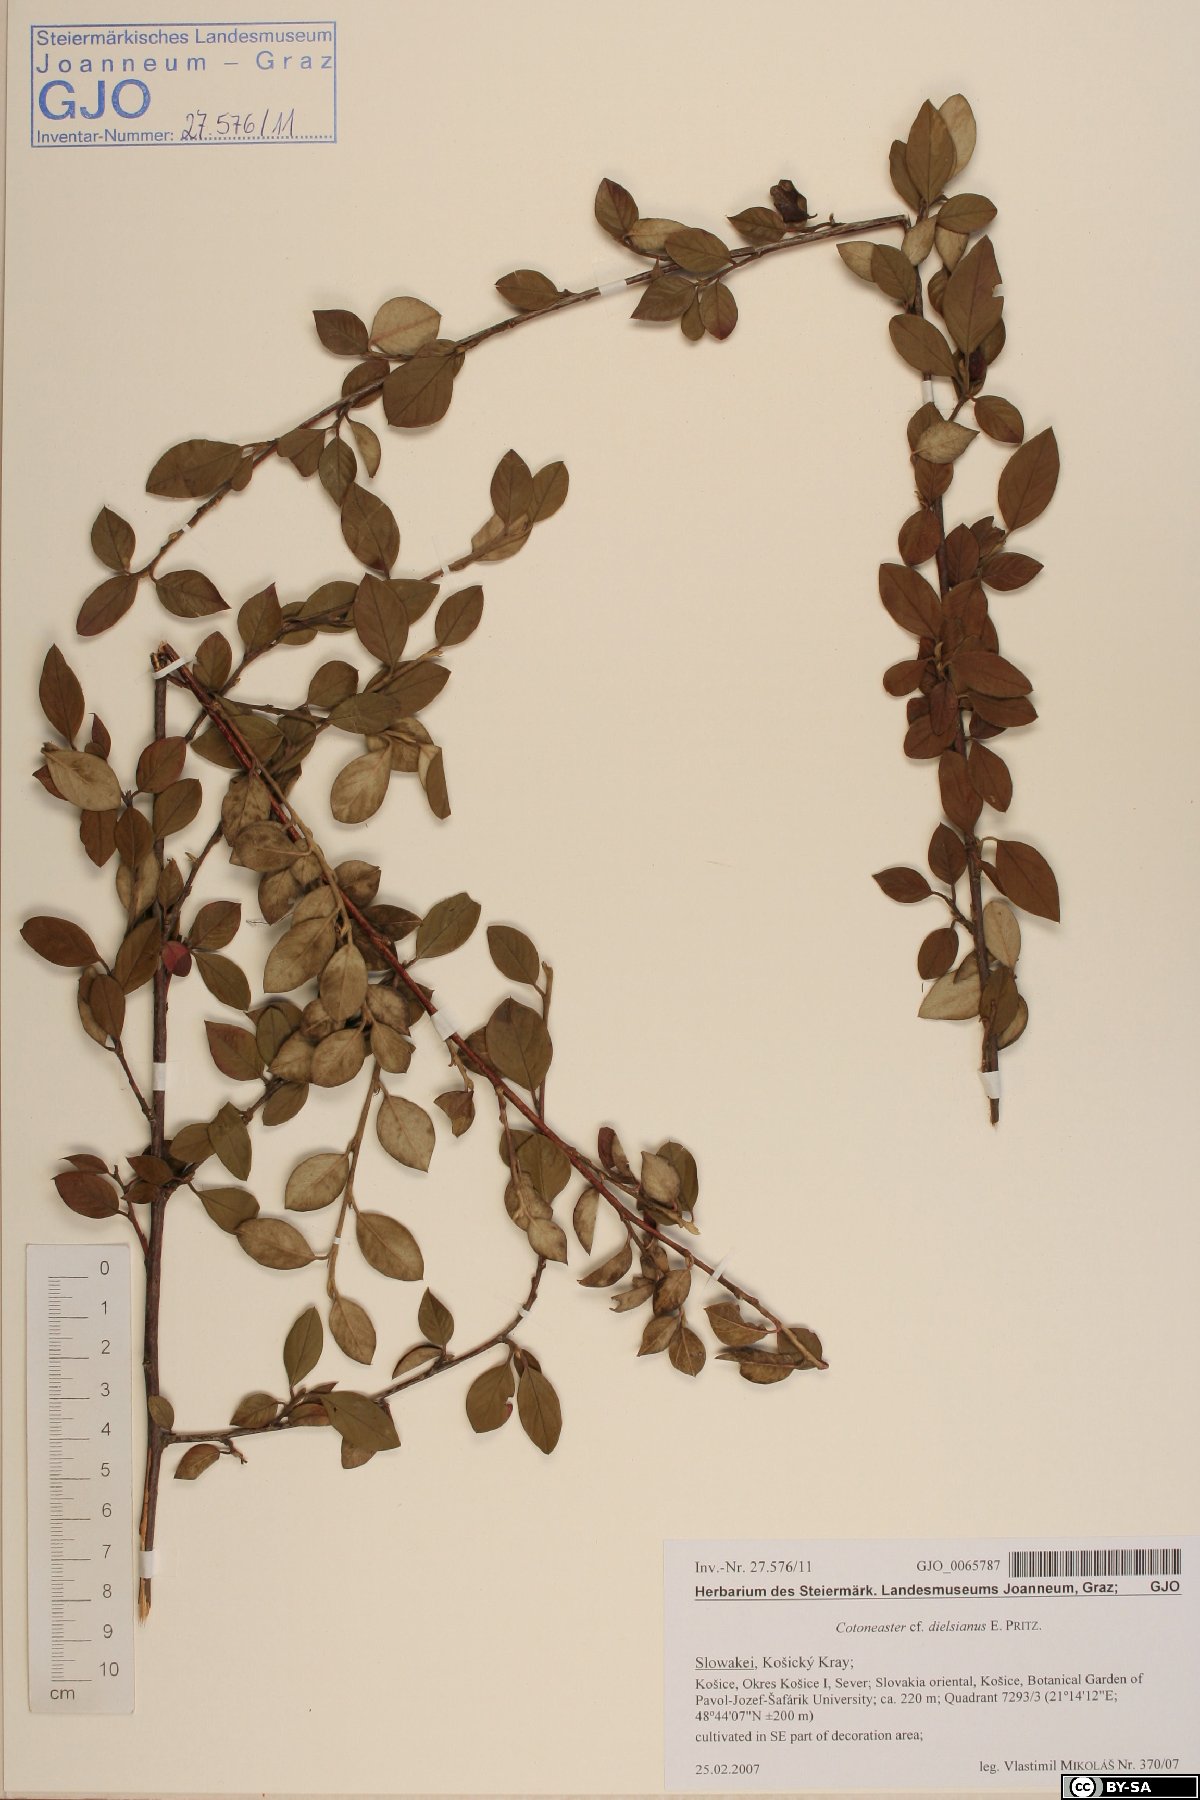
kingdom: Plantae
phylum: Tracheophyta
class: Magnoliopsida
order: Rosales
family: Rosaceae
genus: Cotoneaster
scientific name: Cotoneaster dielsianus
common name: Diels's cotoneaster
